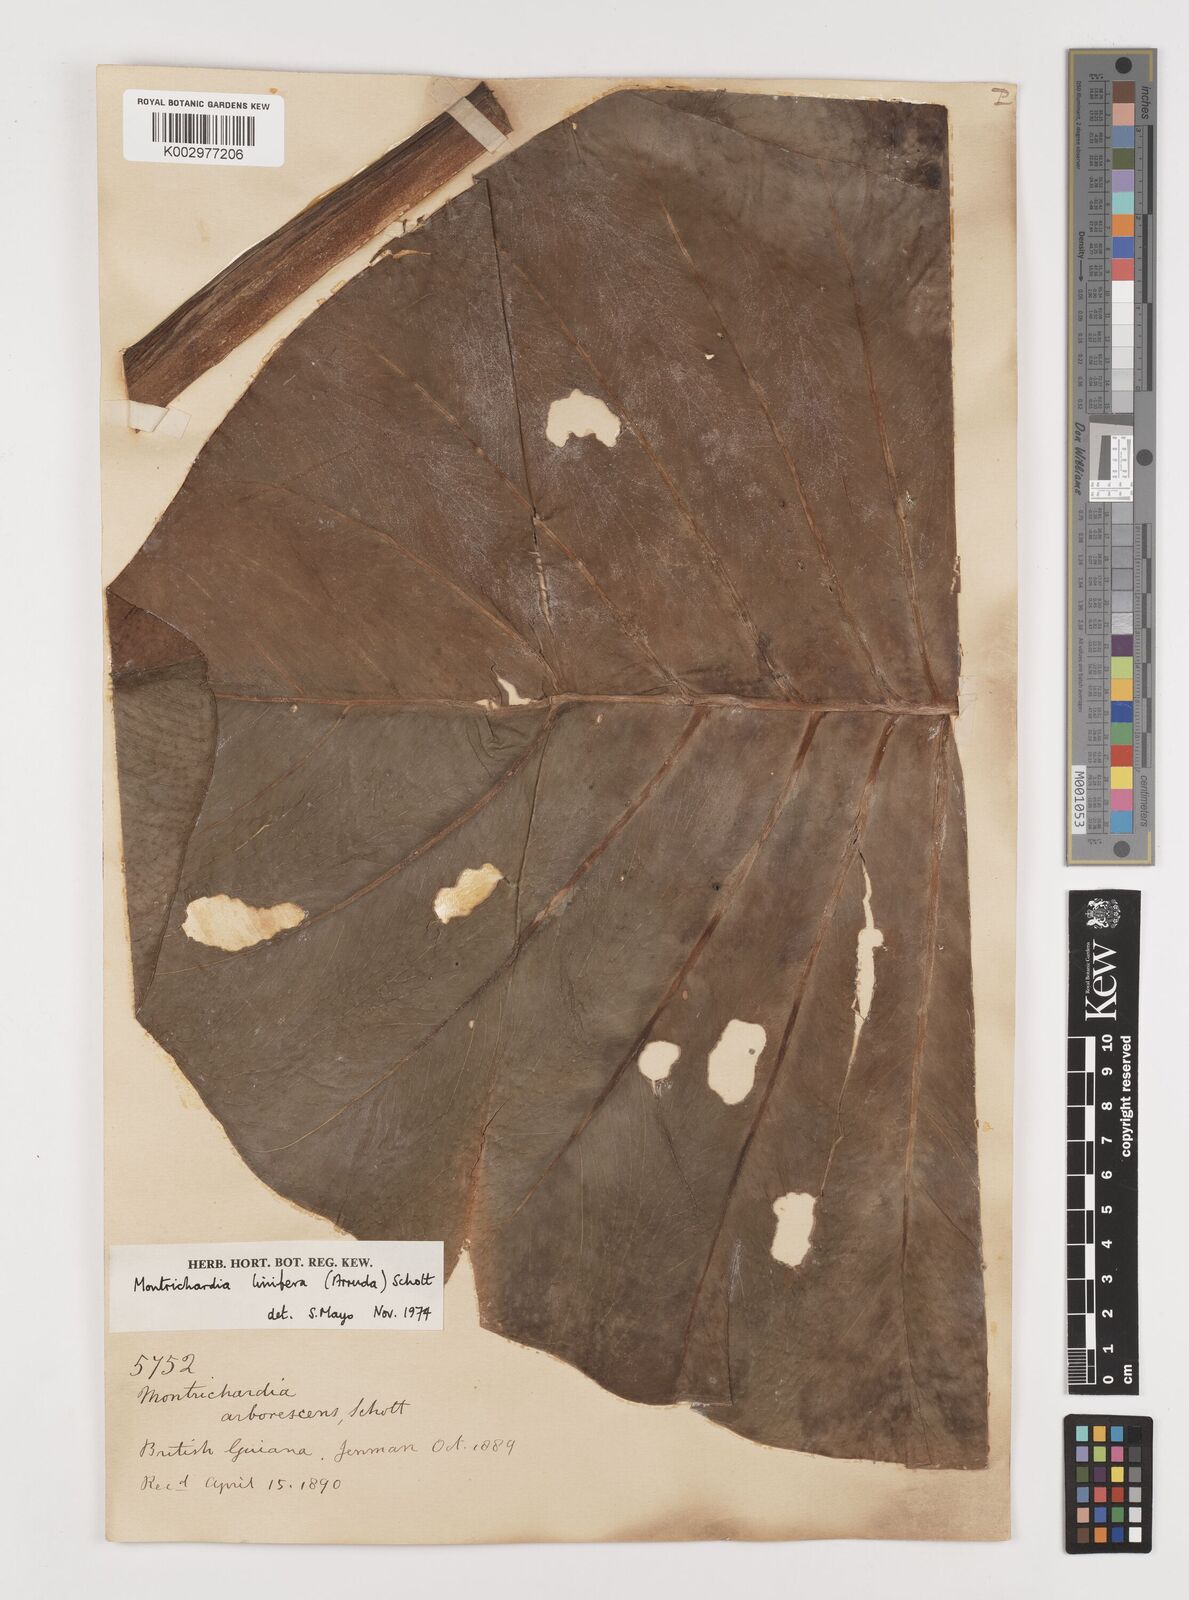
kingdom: Plantae
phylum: Tracheophyta
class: Liliopsida
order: Alismatales
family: Araceae
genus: Montrichardia
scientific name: Montrichardia linifera
